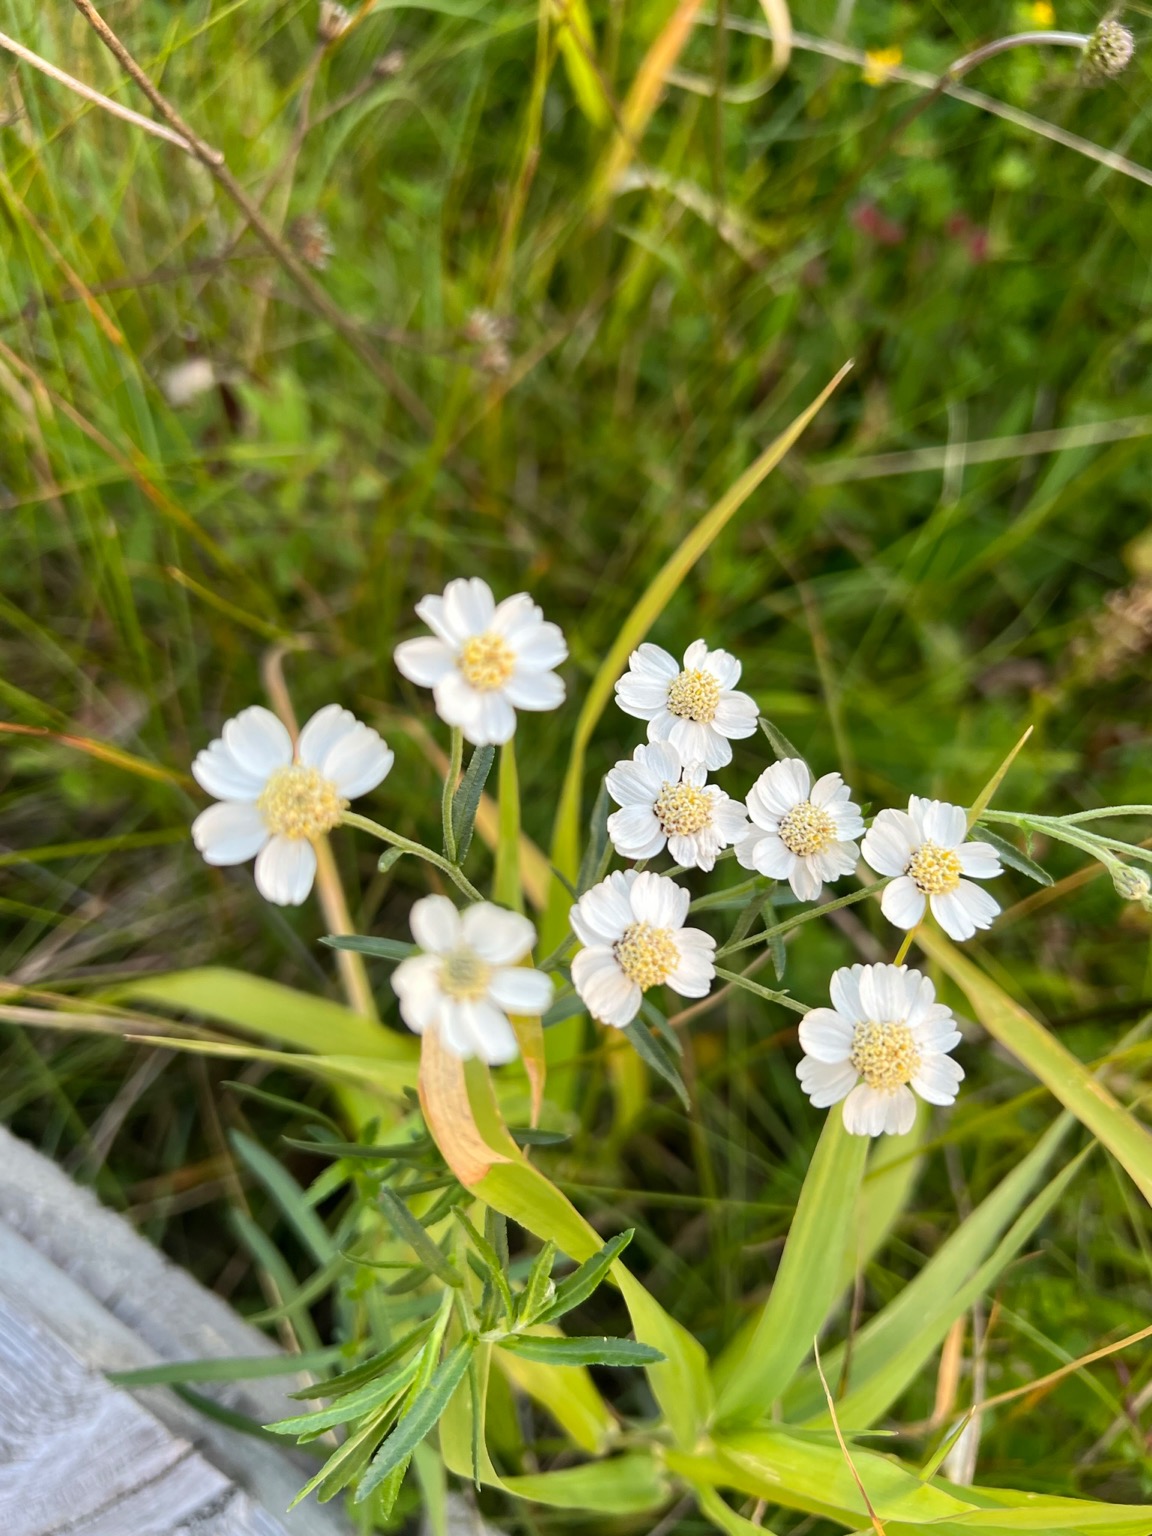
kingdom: Plantae
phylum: Tracheophyta
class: Magnoliopsida
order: Asterales
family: Asteraceae
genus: Achillea
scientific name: Achillea ptarmica
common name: Nyse-røllike
